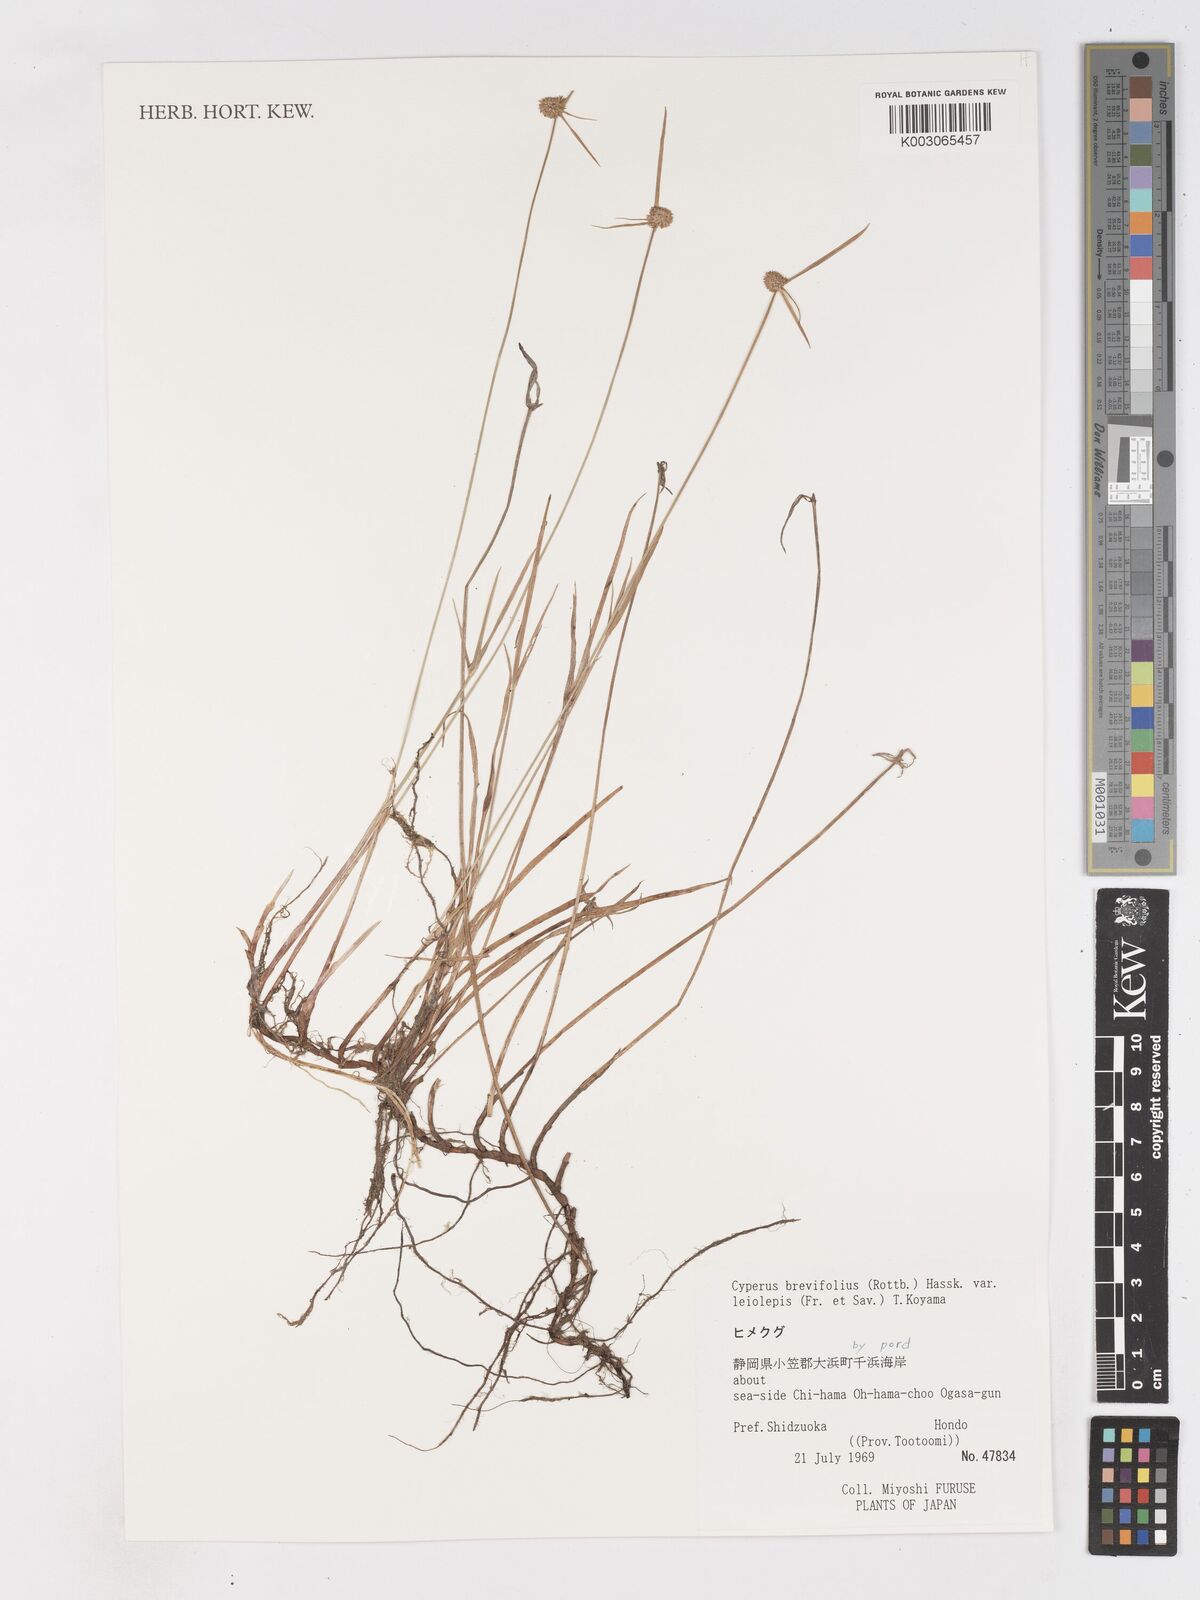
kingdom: Plantae
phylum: Tracheophyta
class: Liliopsida
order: Poales
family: Cyperaceae
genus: Cyperus
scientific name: Cyperus brevifolius
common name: Globe kyllinga
